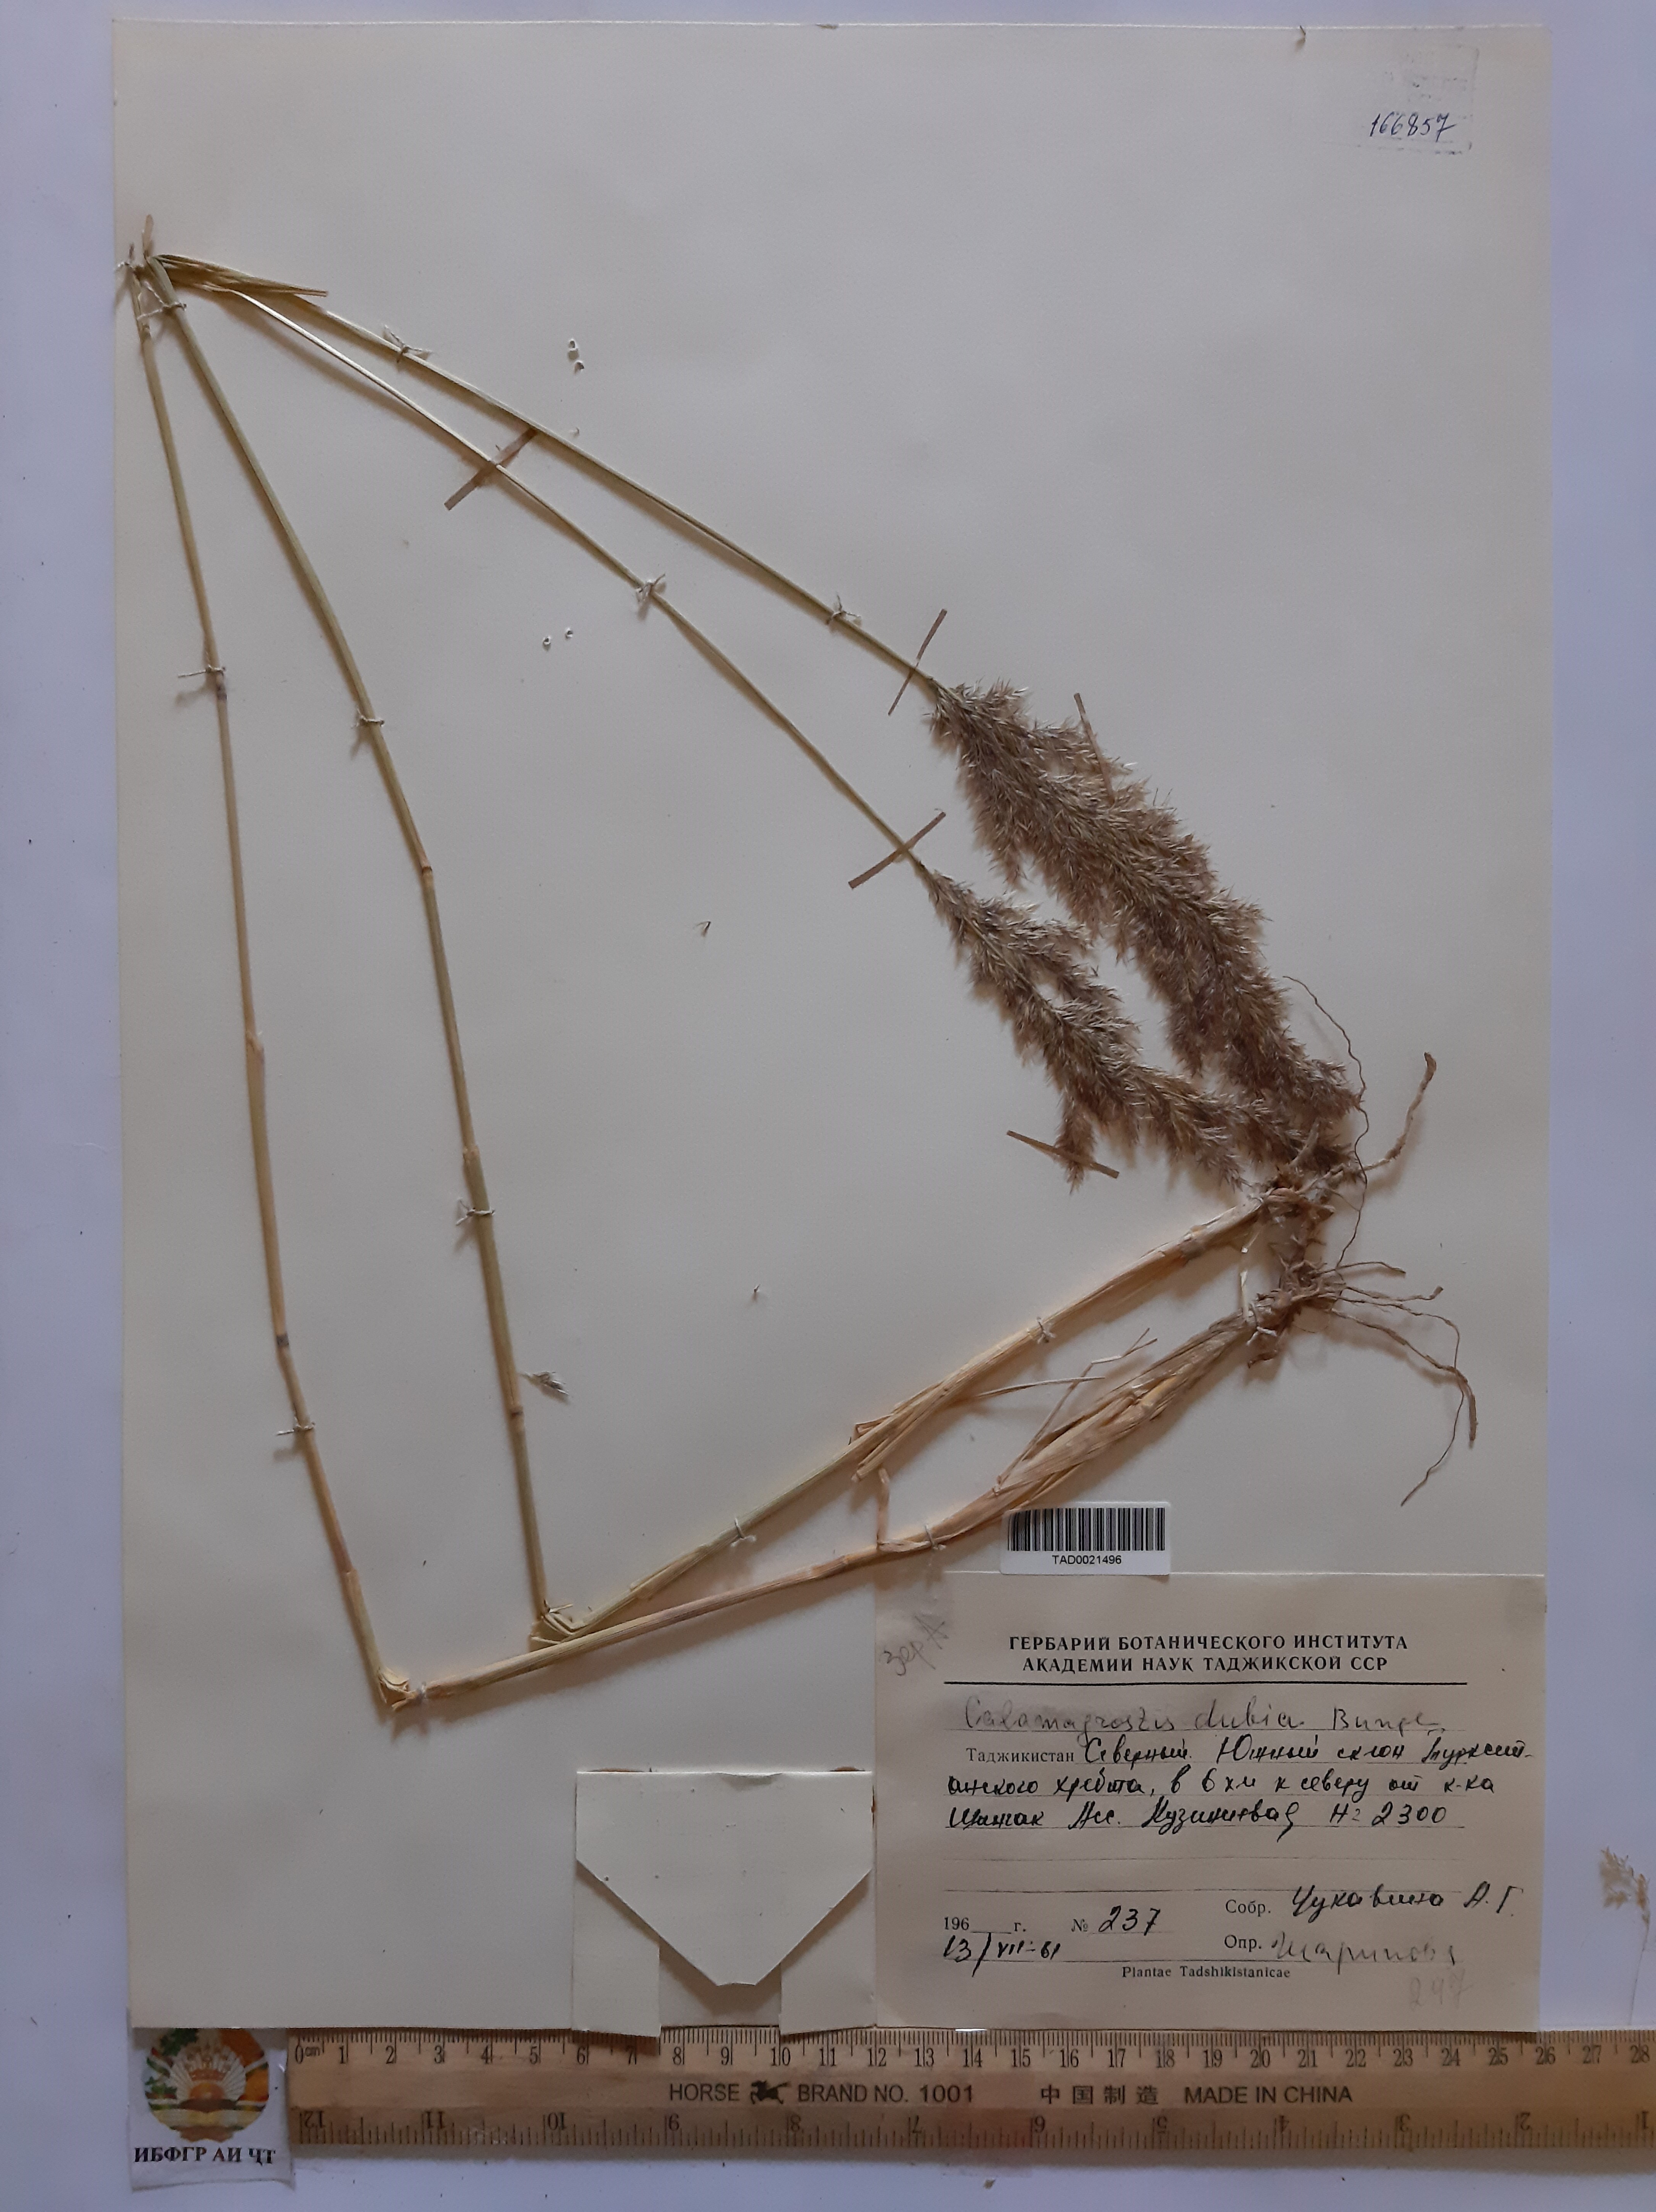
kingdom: Plantae
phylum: Tracheophyta
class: Liliopsida
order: Poales
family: Poaceae
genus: Calamagrostis
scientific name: Calamagrostis pseudophragmites
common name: Coastal small-reed
